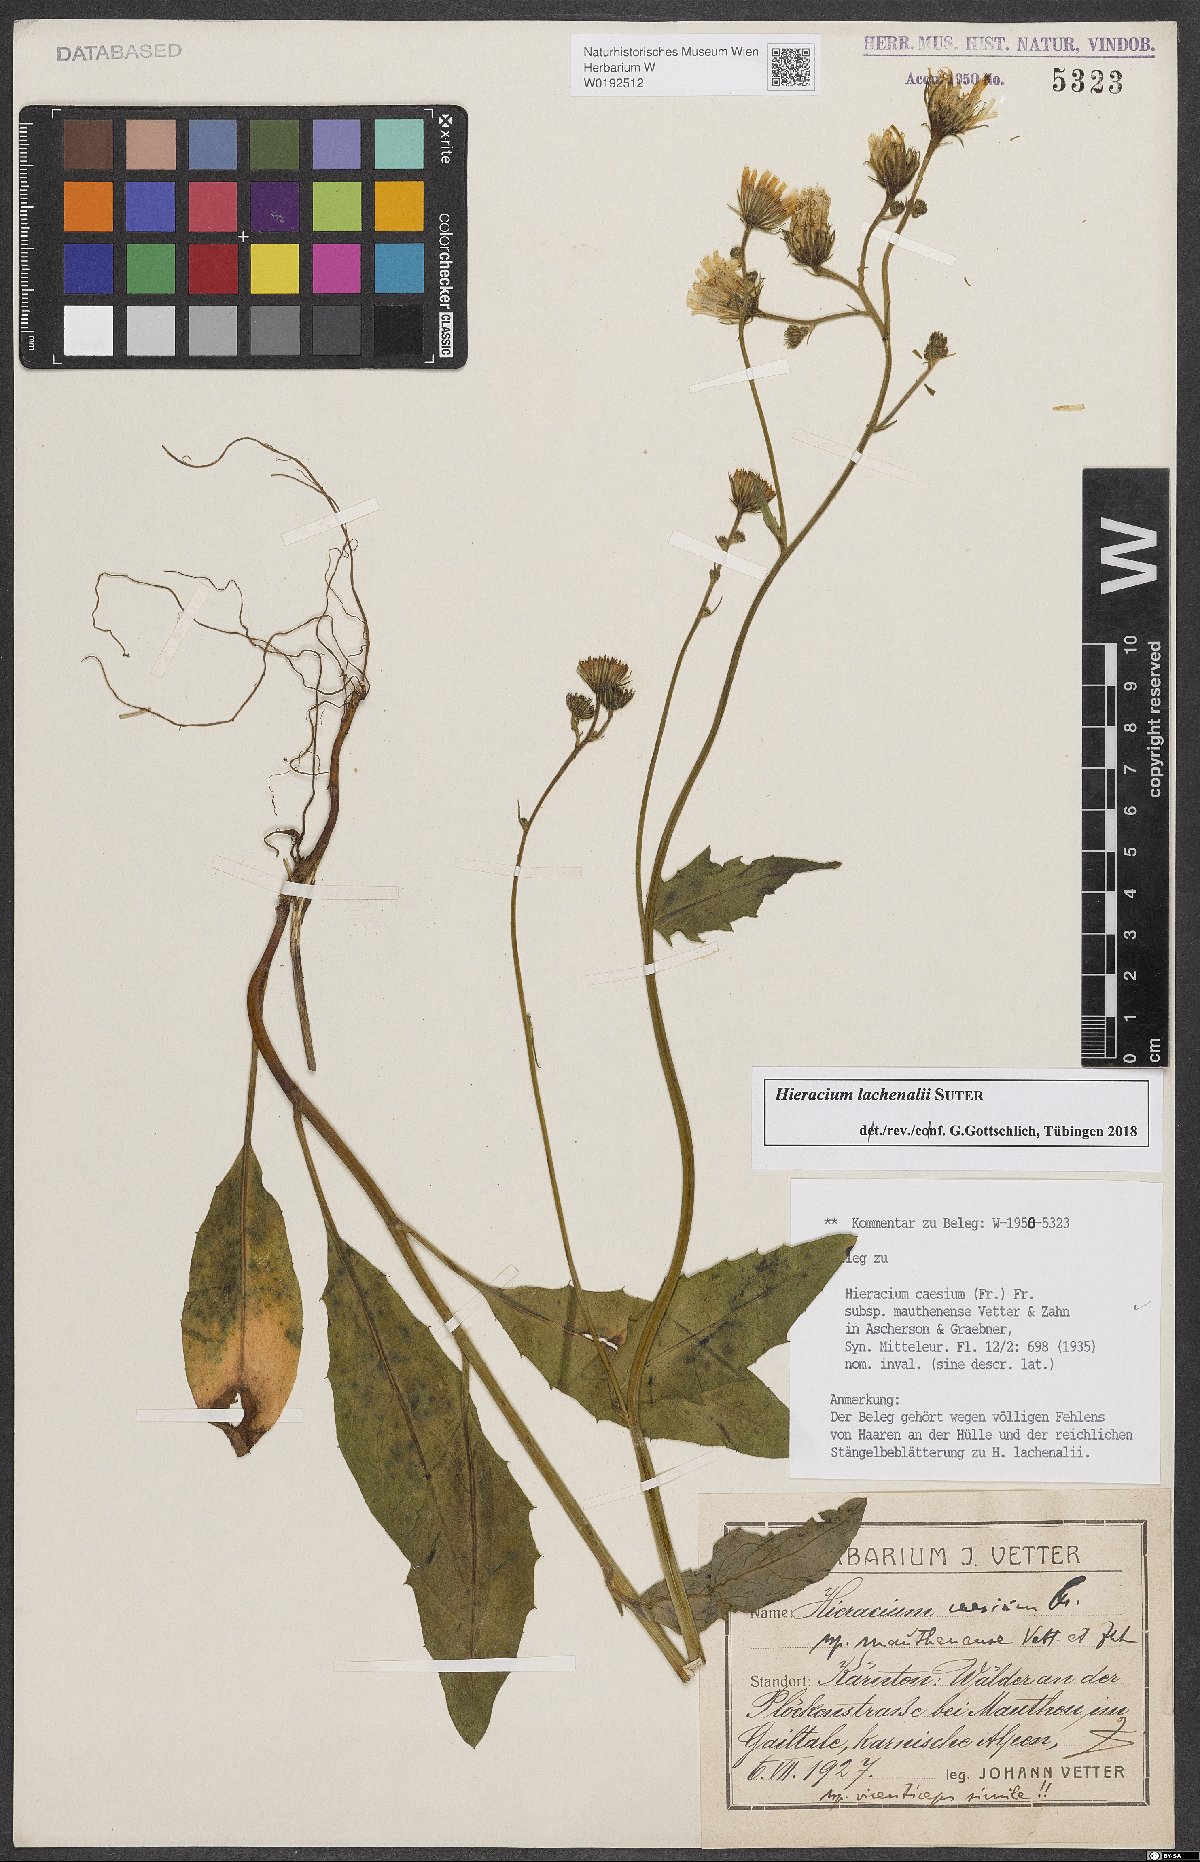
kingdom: Plantae
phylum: Tracheophyta
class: Magnoliopsida
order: Asterales
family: Asteraceae
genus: Hieracium
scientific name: Hieracium caesium
